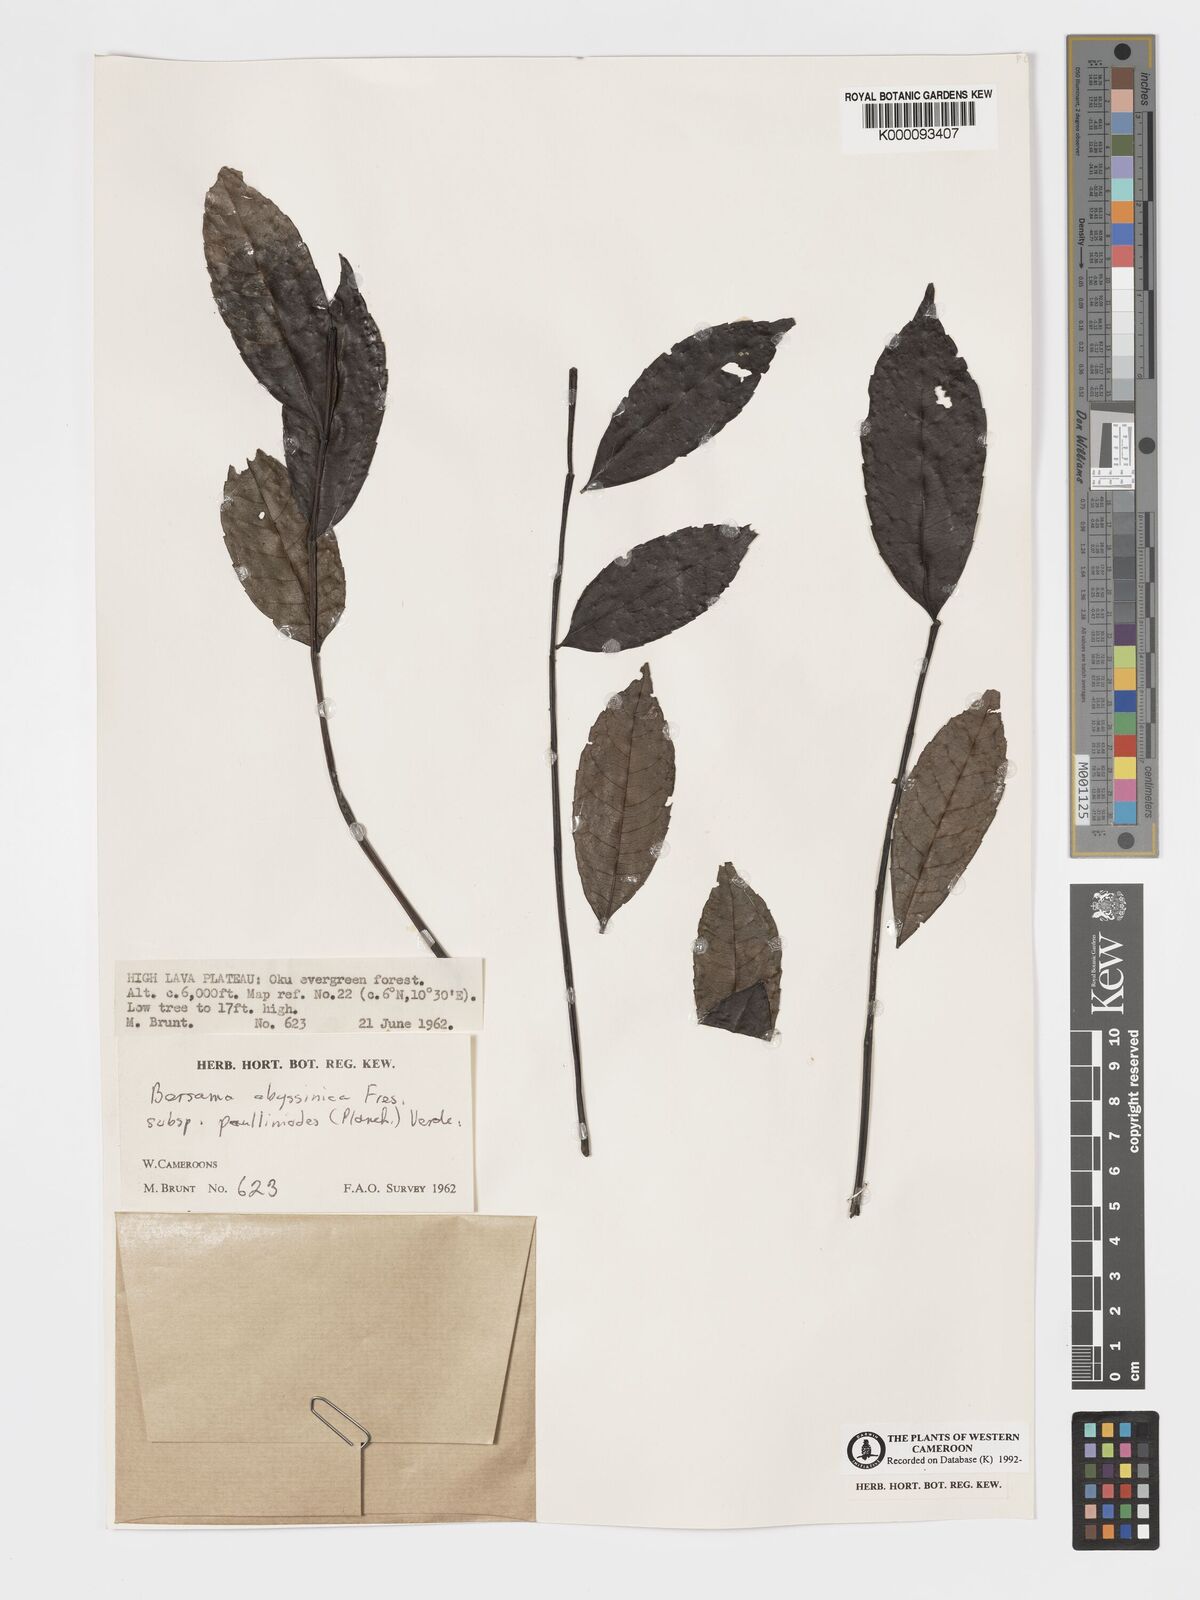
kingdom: Plantae
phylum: Tracheophyta
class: Magnoliopsida
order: Geraniales
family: Melianthaceae
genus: Bersama
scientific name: Bersama
